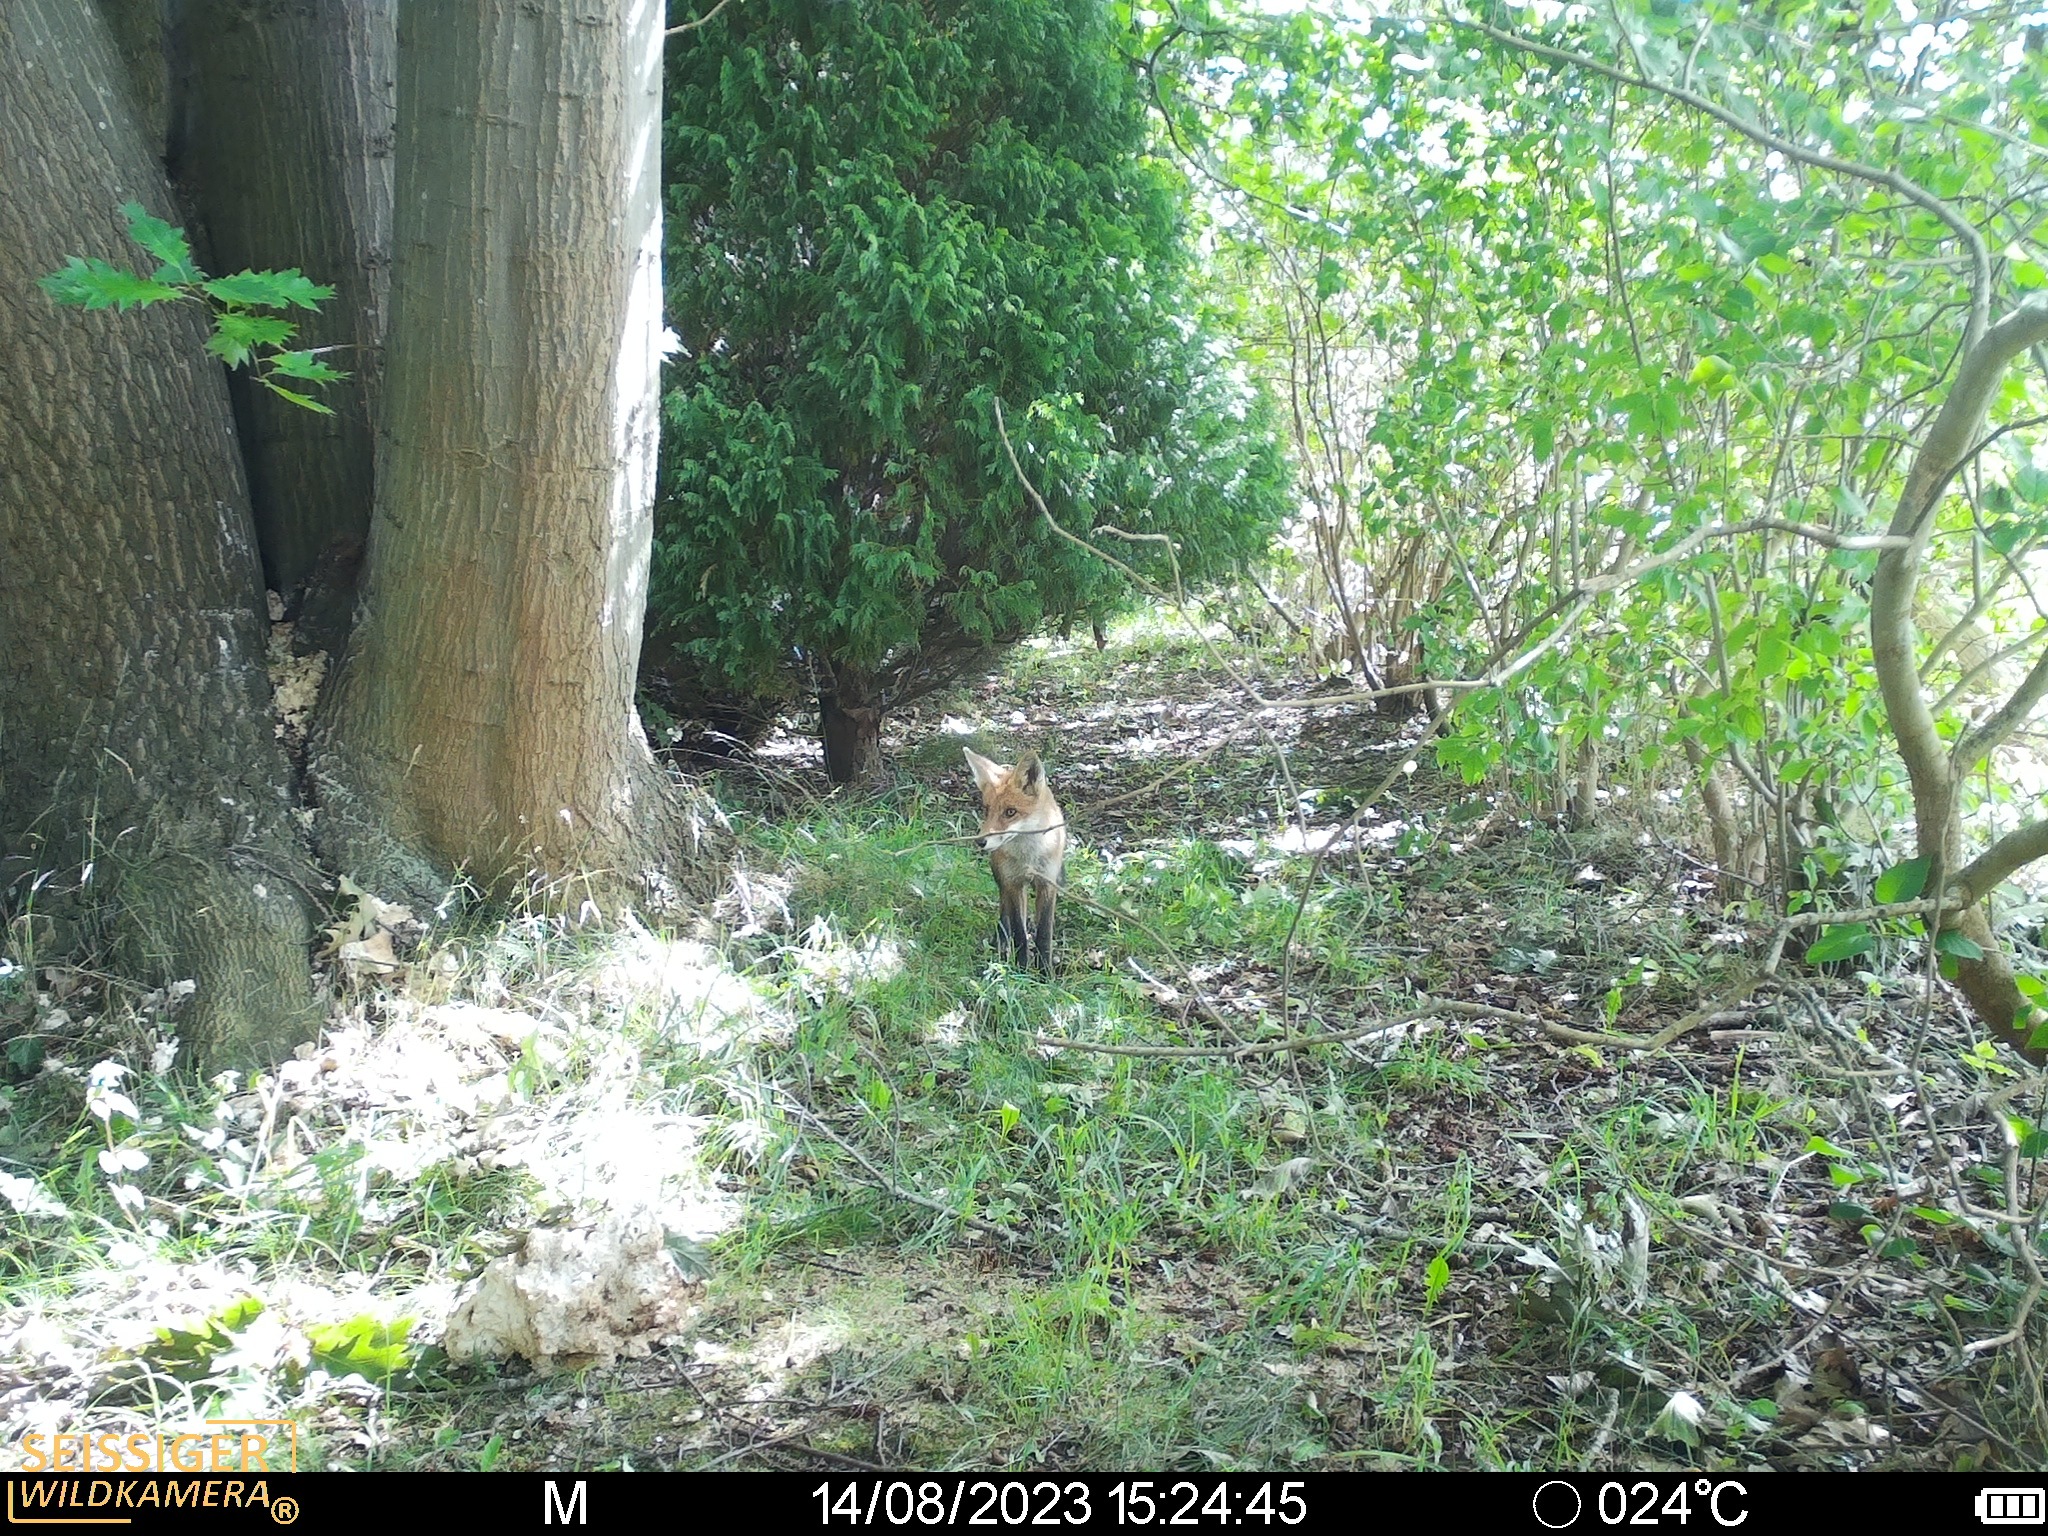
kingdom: Animalia
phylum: Chordata
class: Mammalia
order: Carnivora
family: Canidae
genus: Vulpes
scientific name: Vulpes vulpes
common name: Ræv
